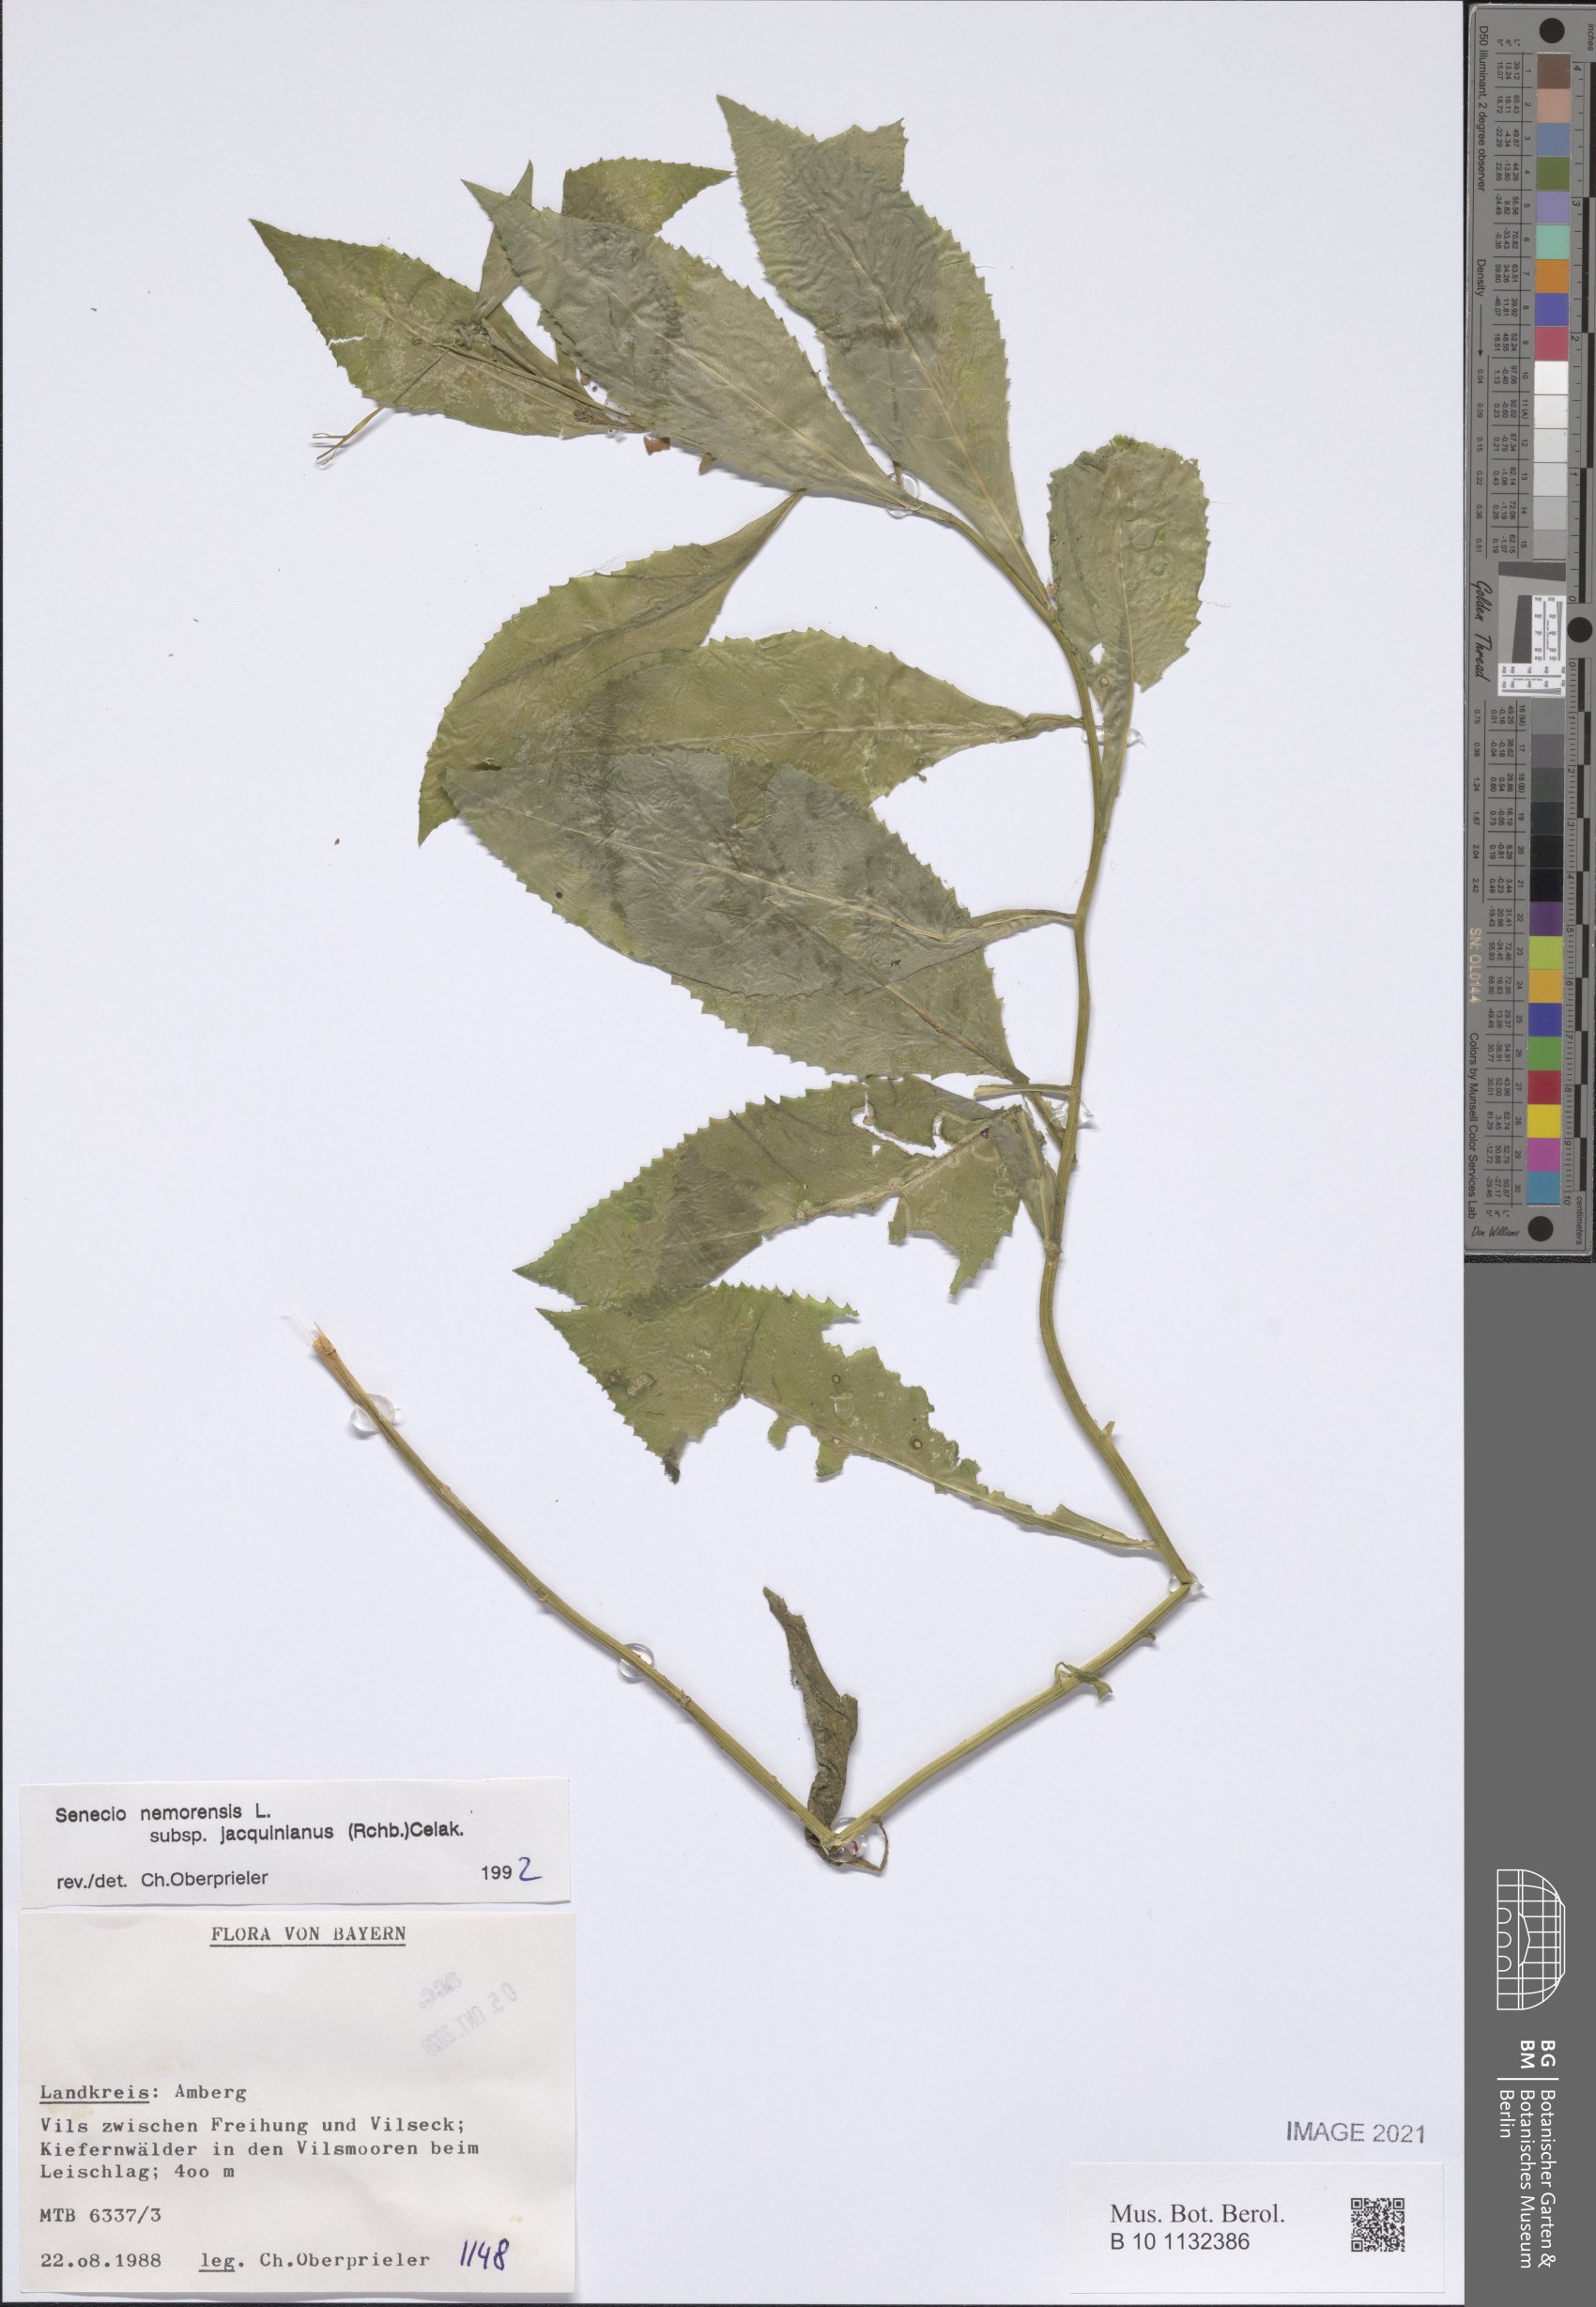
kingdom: Plantae
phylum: Tracheophyta
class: Magnoliopsida
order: Asterales
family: Asteraceae
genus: Senecio
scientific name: Senecio germanicus
